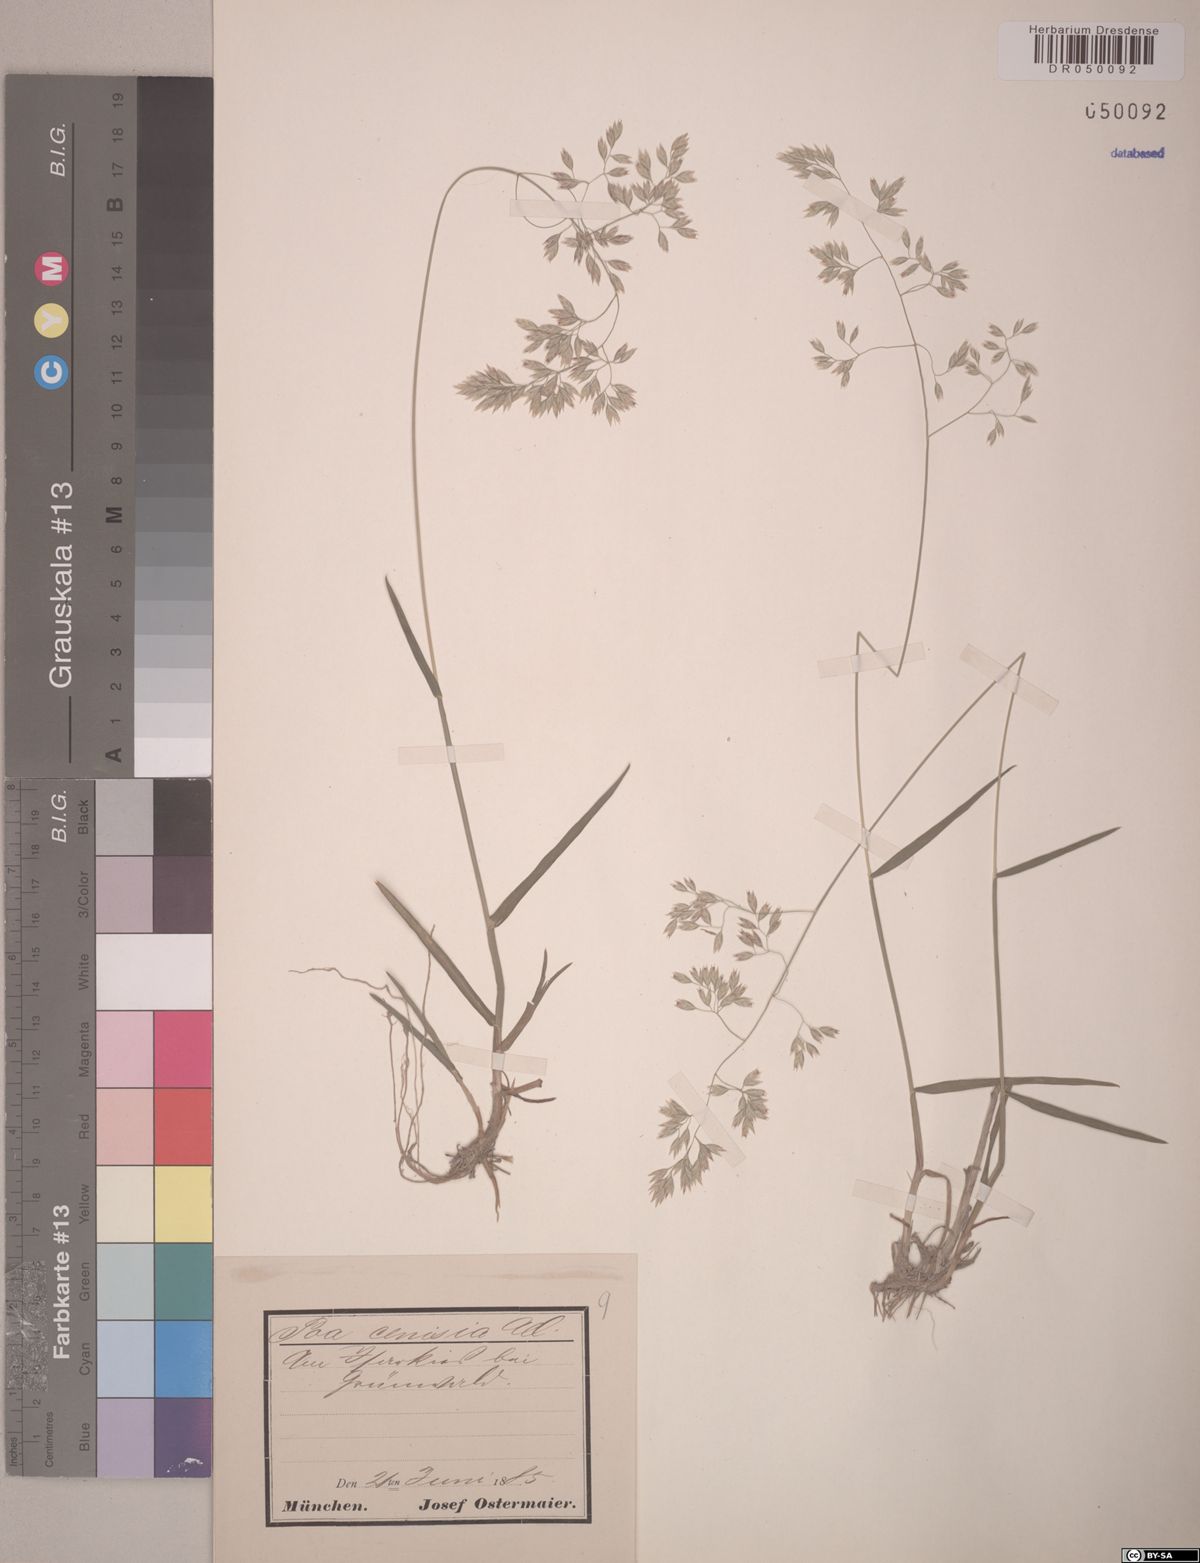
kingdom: Plantae
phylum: Tracheophyta
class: Liliopsida
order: Poales
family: Poaceae
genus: Poa
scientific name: Poa cenisia
